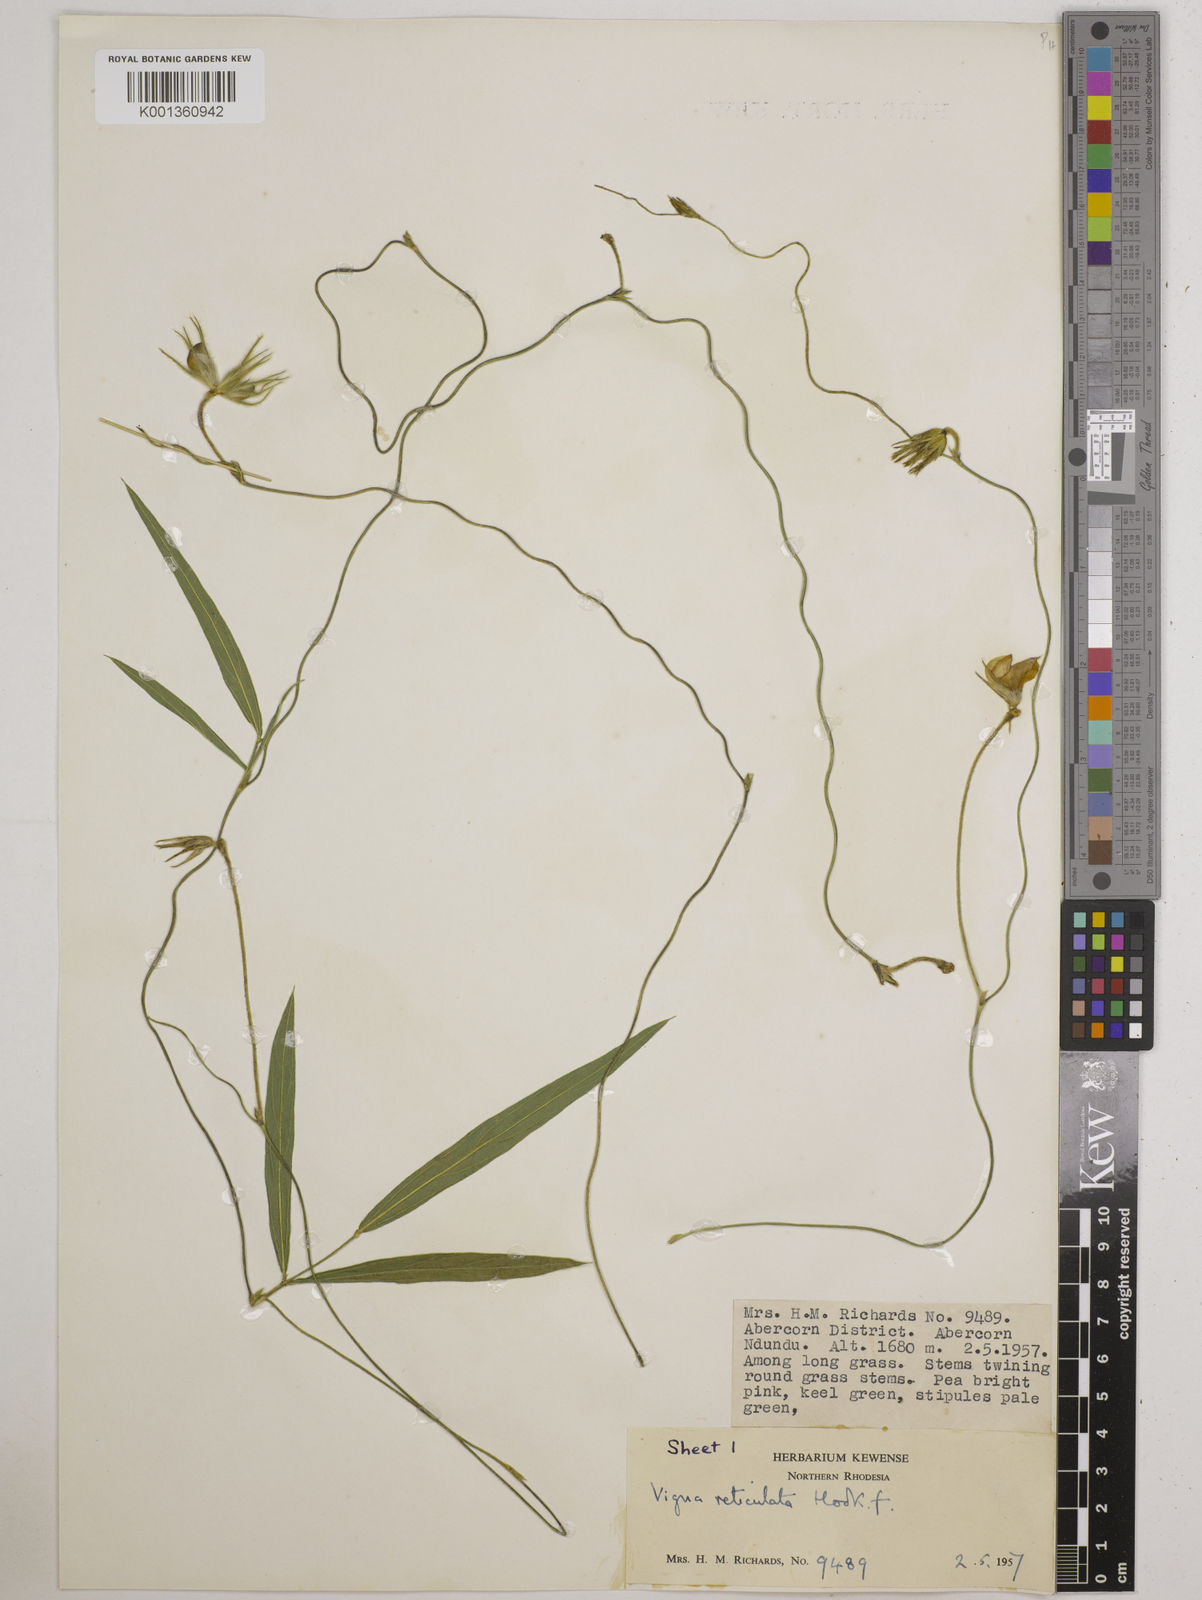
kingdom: Plantae
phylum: Tracheophyta
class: Magnoliopsida
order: Fabales
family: Fabaceae
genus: Vigna
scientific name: Vigna reticulata
